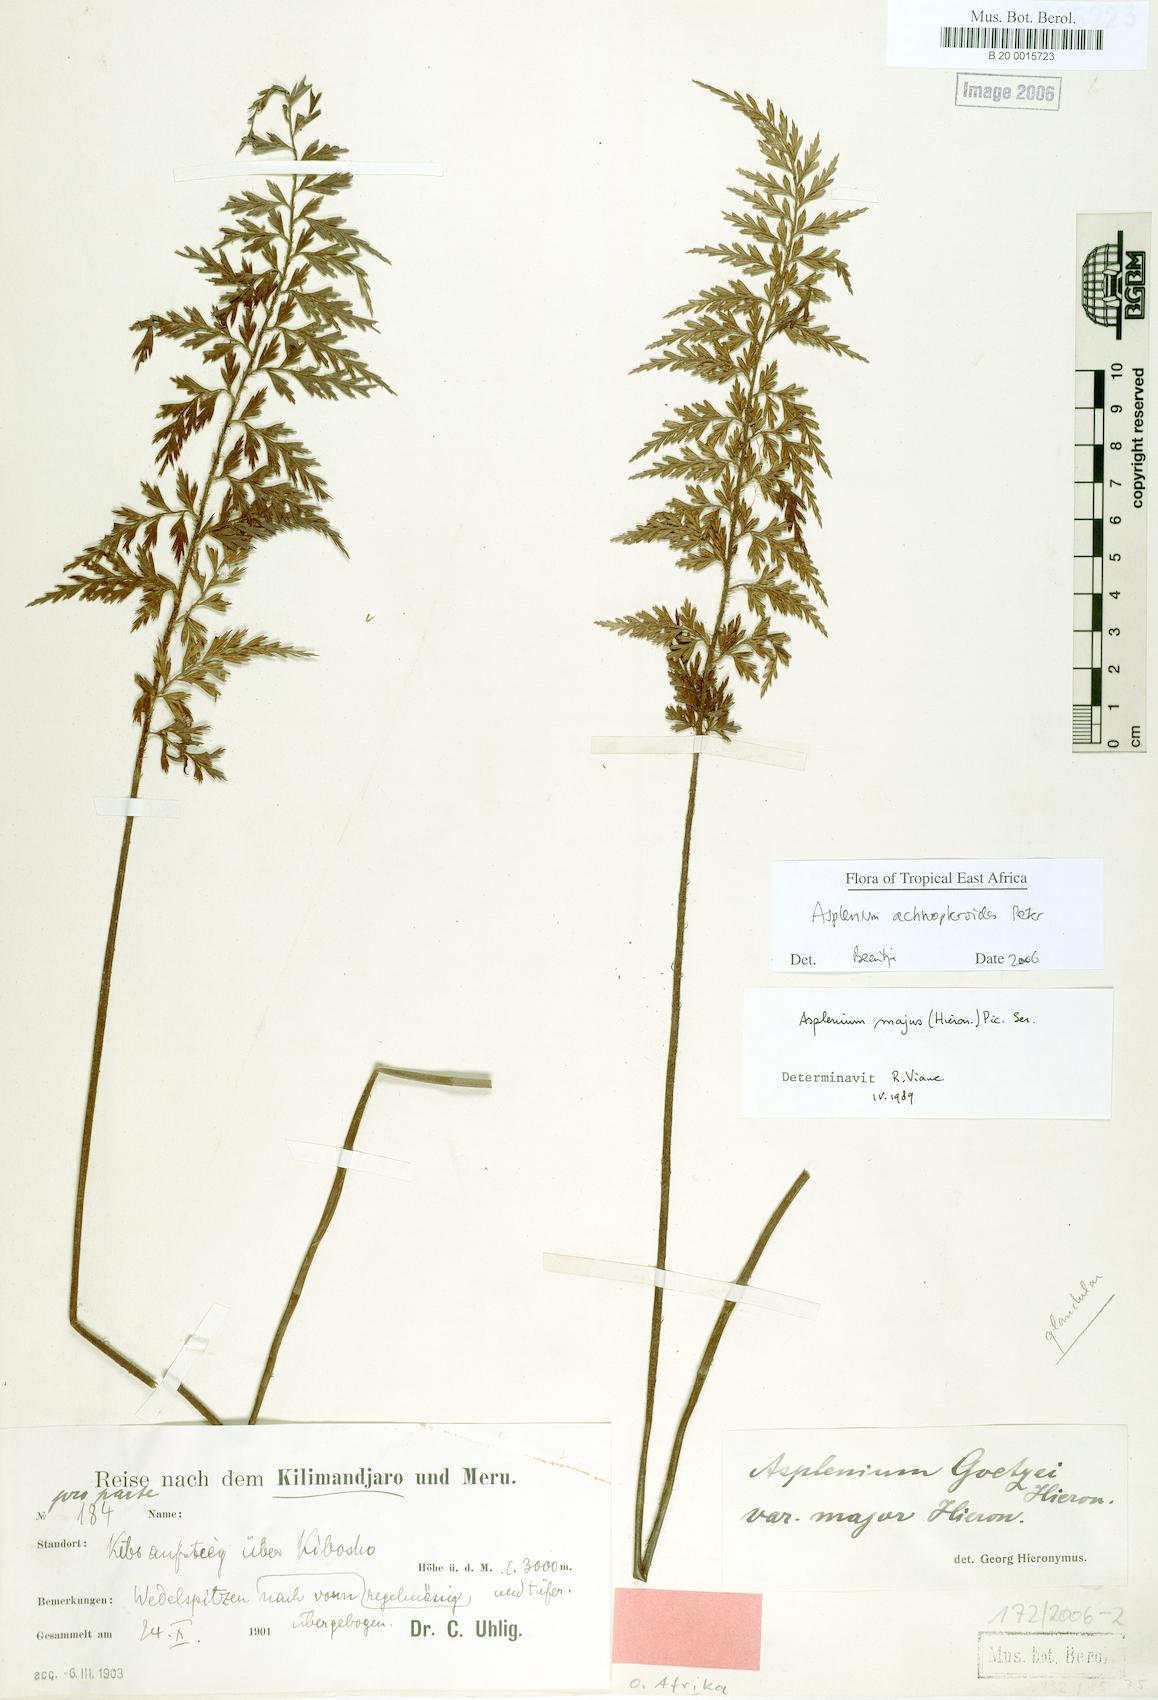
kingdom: Plantae
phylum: Tracheophyta
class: Polypodiopsida
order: Polypodiales
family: Aspleniaceae
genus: Asplenium
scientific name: Asplenium actiniopteroides
